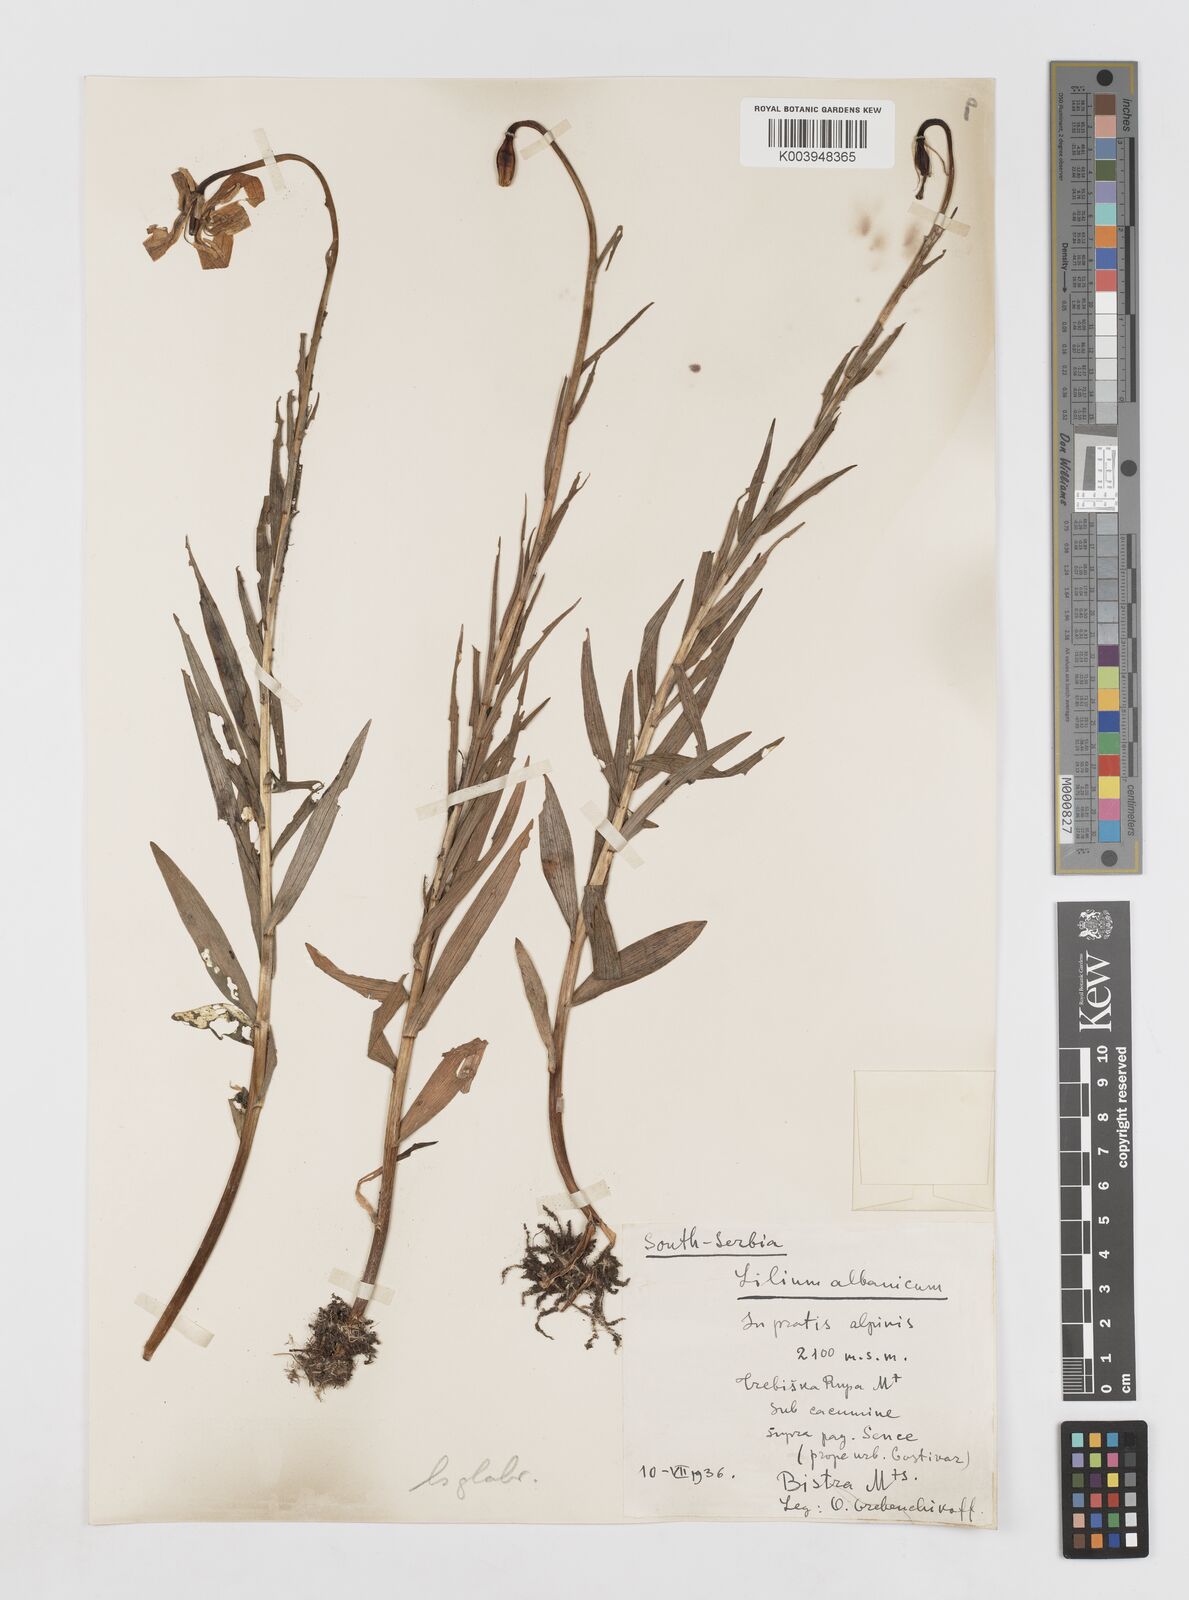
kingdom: Plantae
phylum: Tracheophyta
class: Liliopsida
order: Liliales
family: Liliaceae
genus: Lilium
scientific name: Lilium carniolicum
